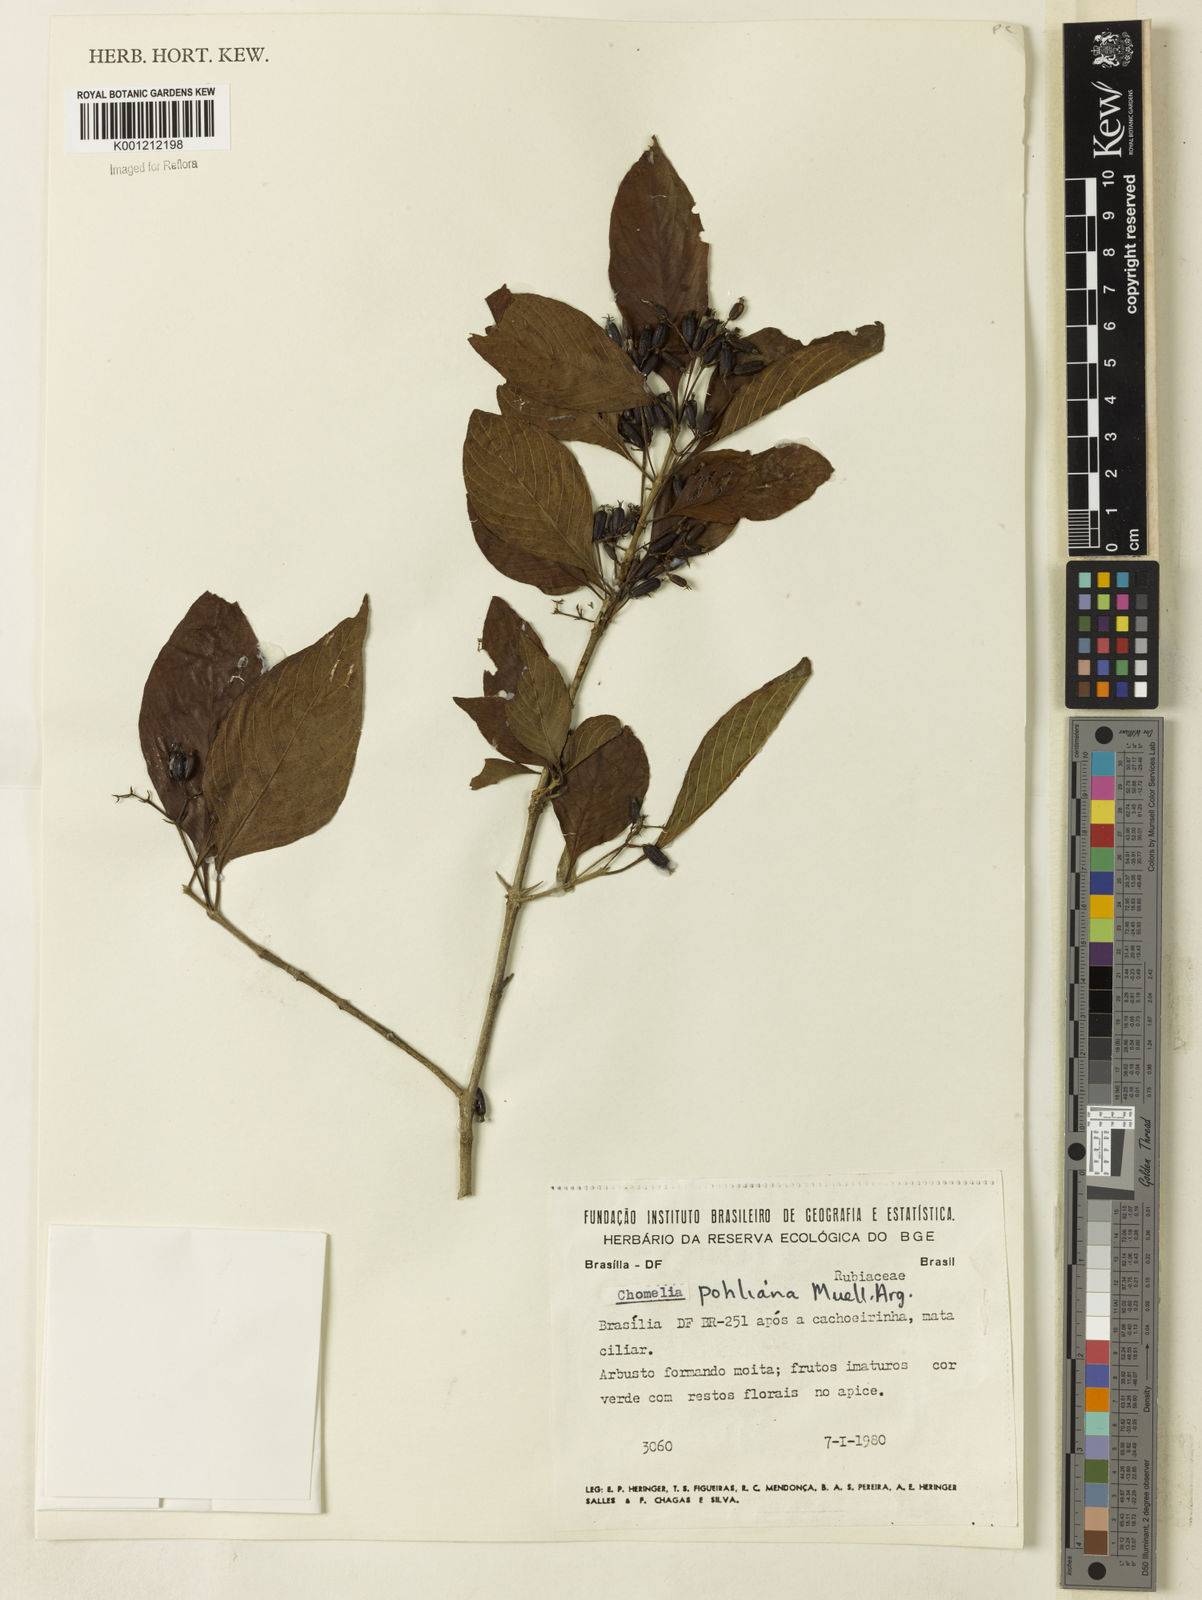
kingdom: Plantae
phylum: Tracheophyta
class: Magnoliopsida
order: Gentianales
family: Rubiaceae
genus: Chomelia
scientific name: Chomelia
